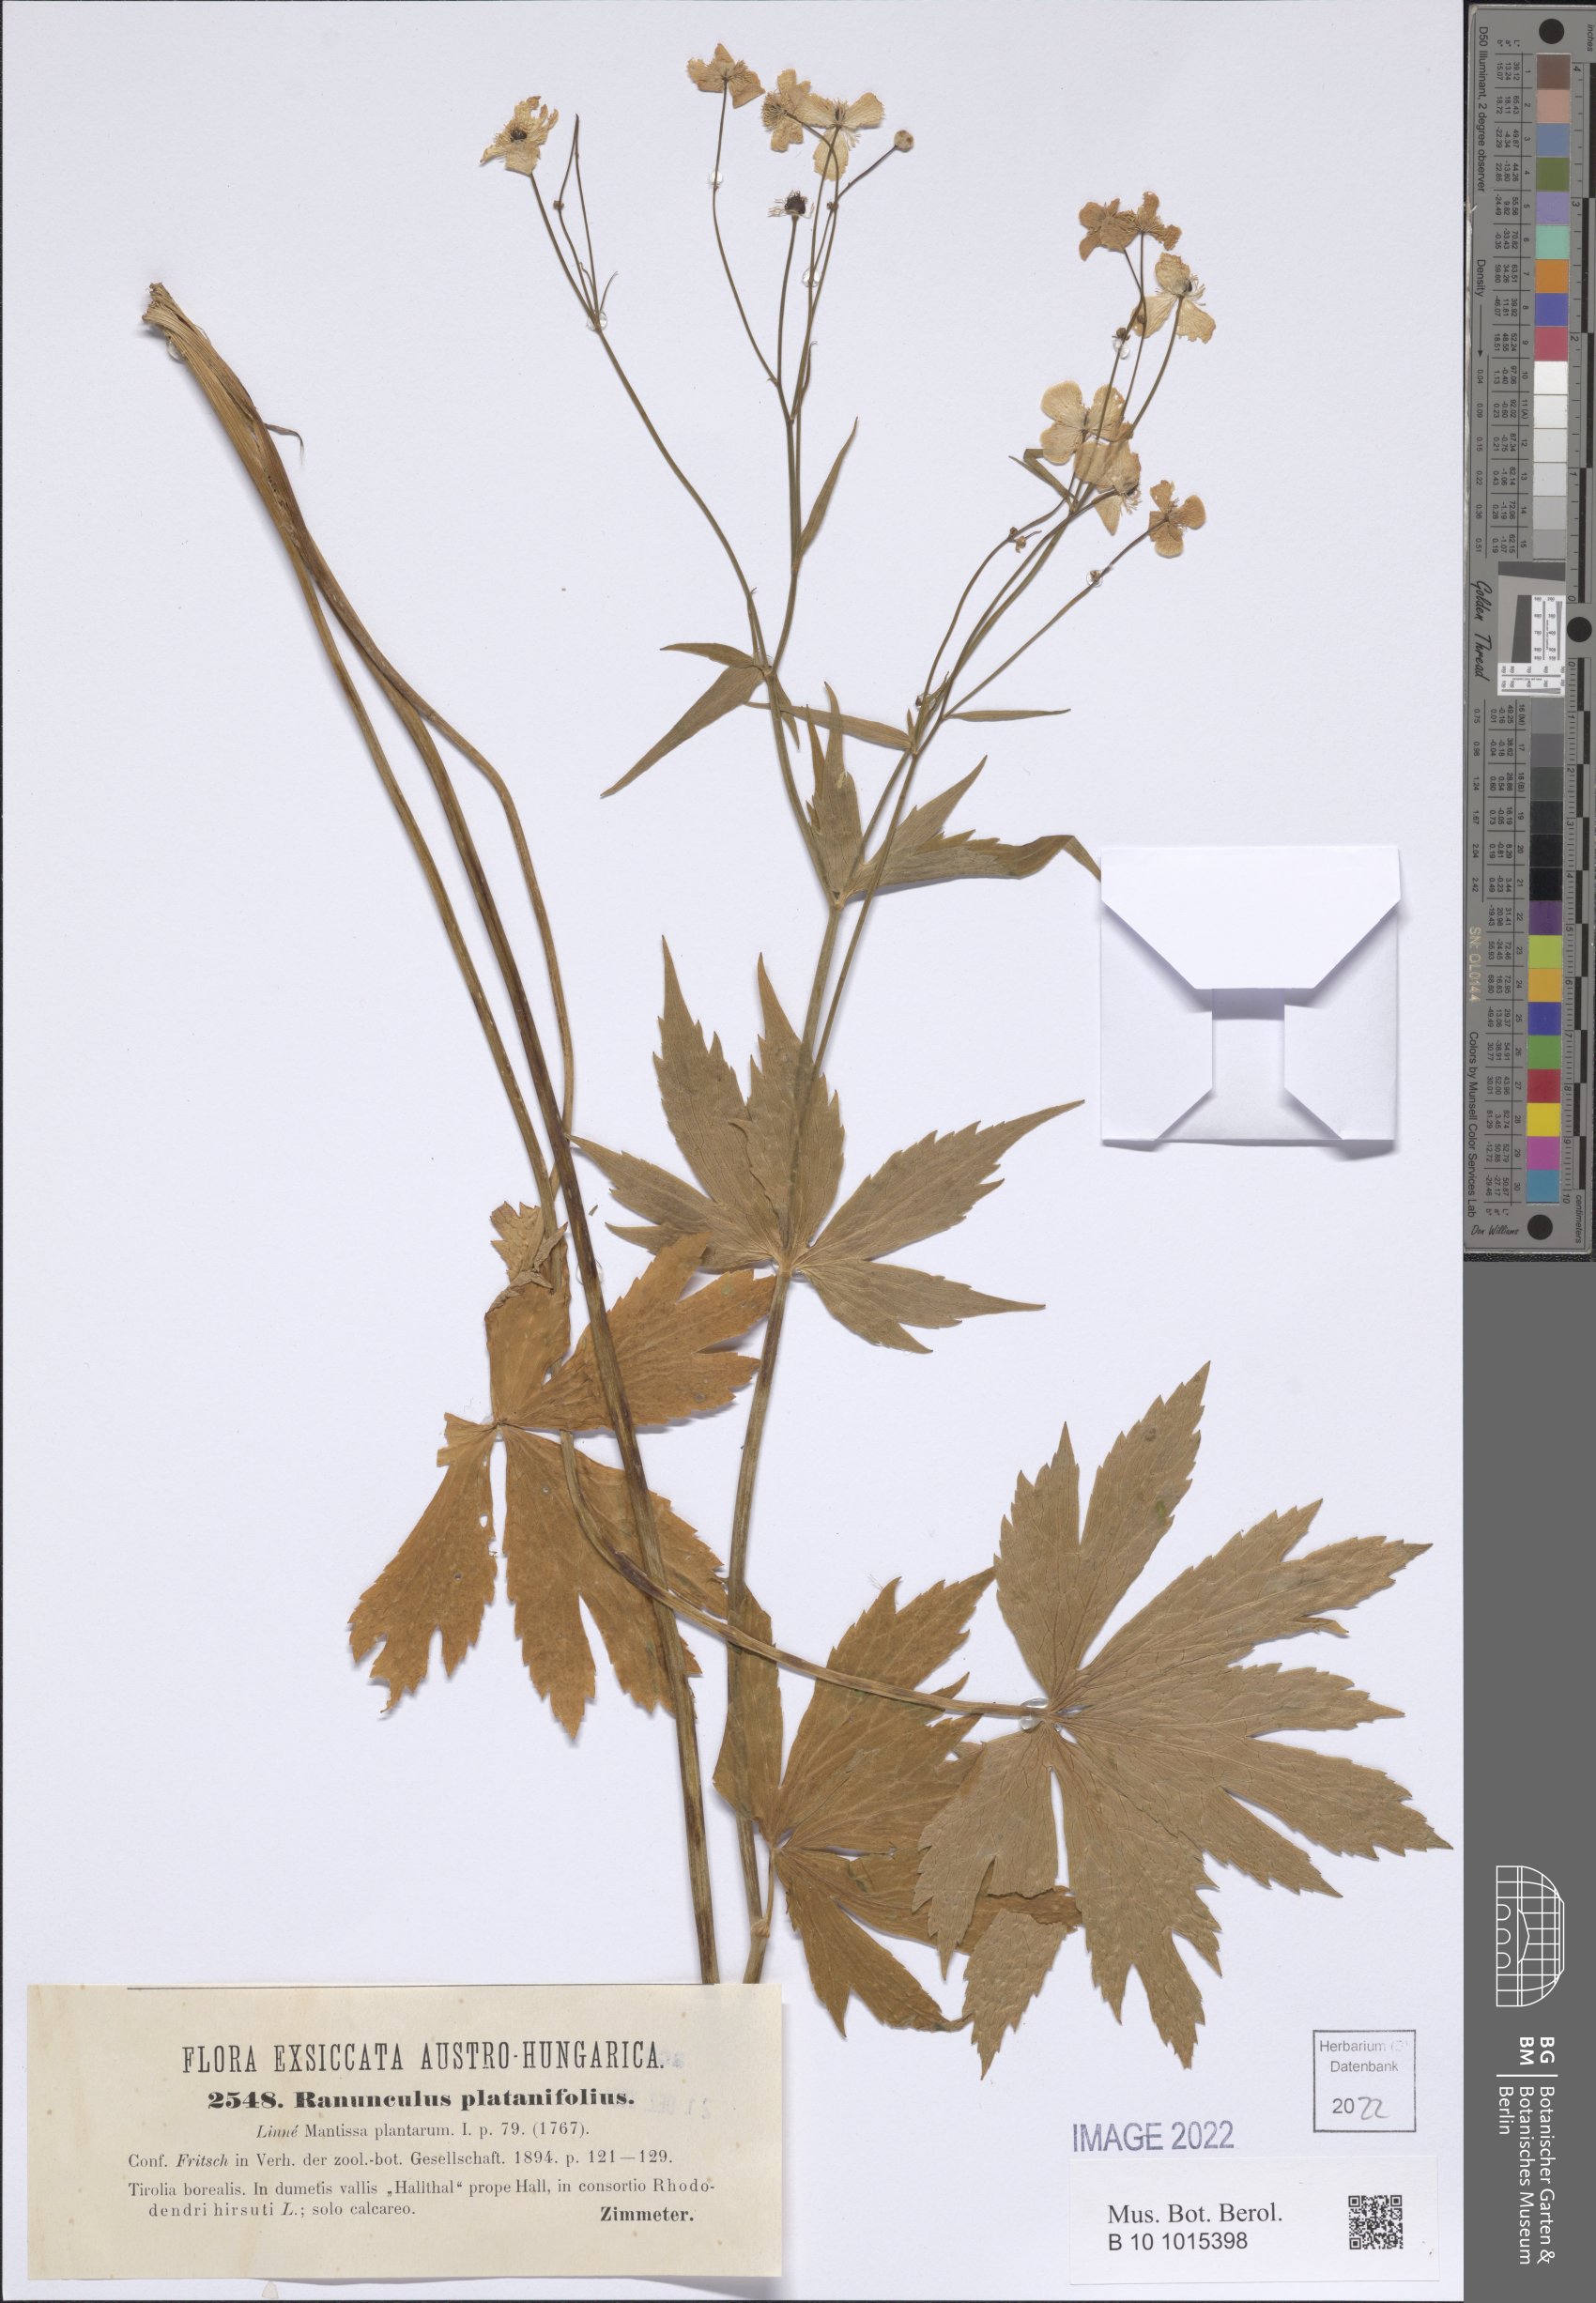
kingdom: Plantae
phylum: Tracheophyta
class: Magnoliopsida
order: Ranunculales
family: Ranunculaceae
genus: Ranunculus
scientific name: Ranunculus platanifolius
